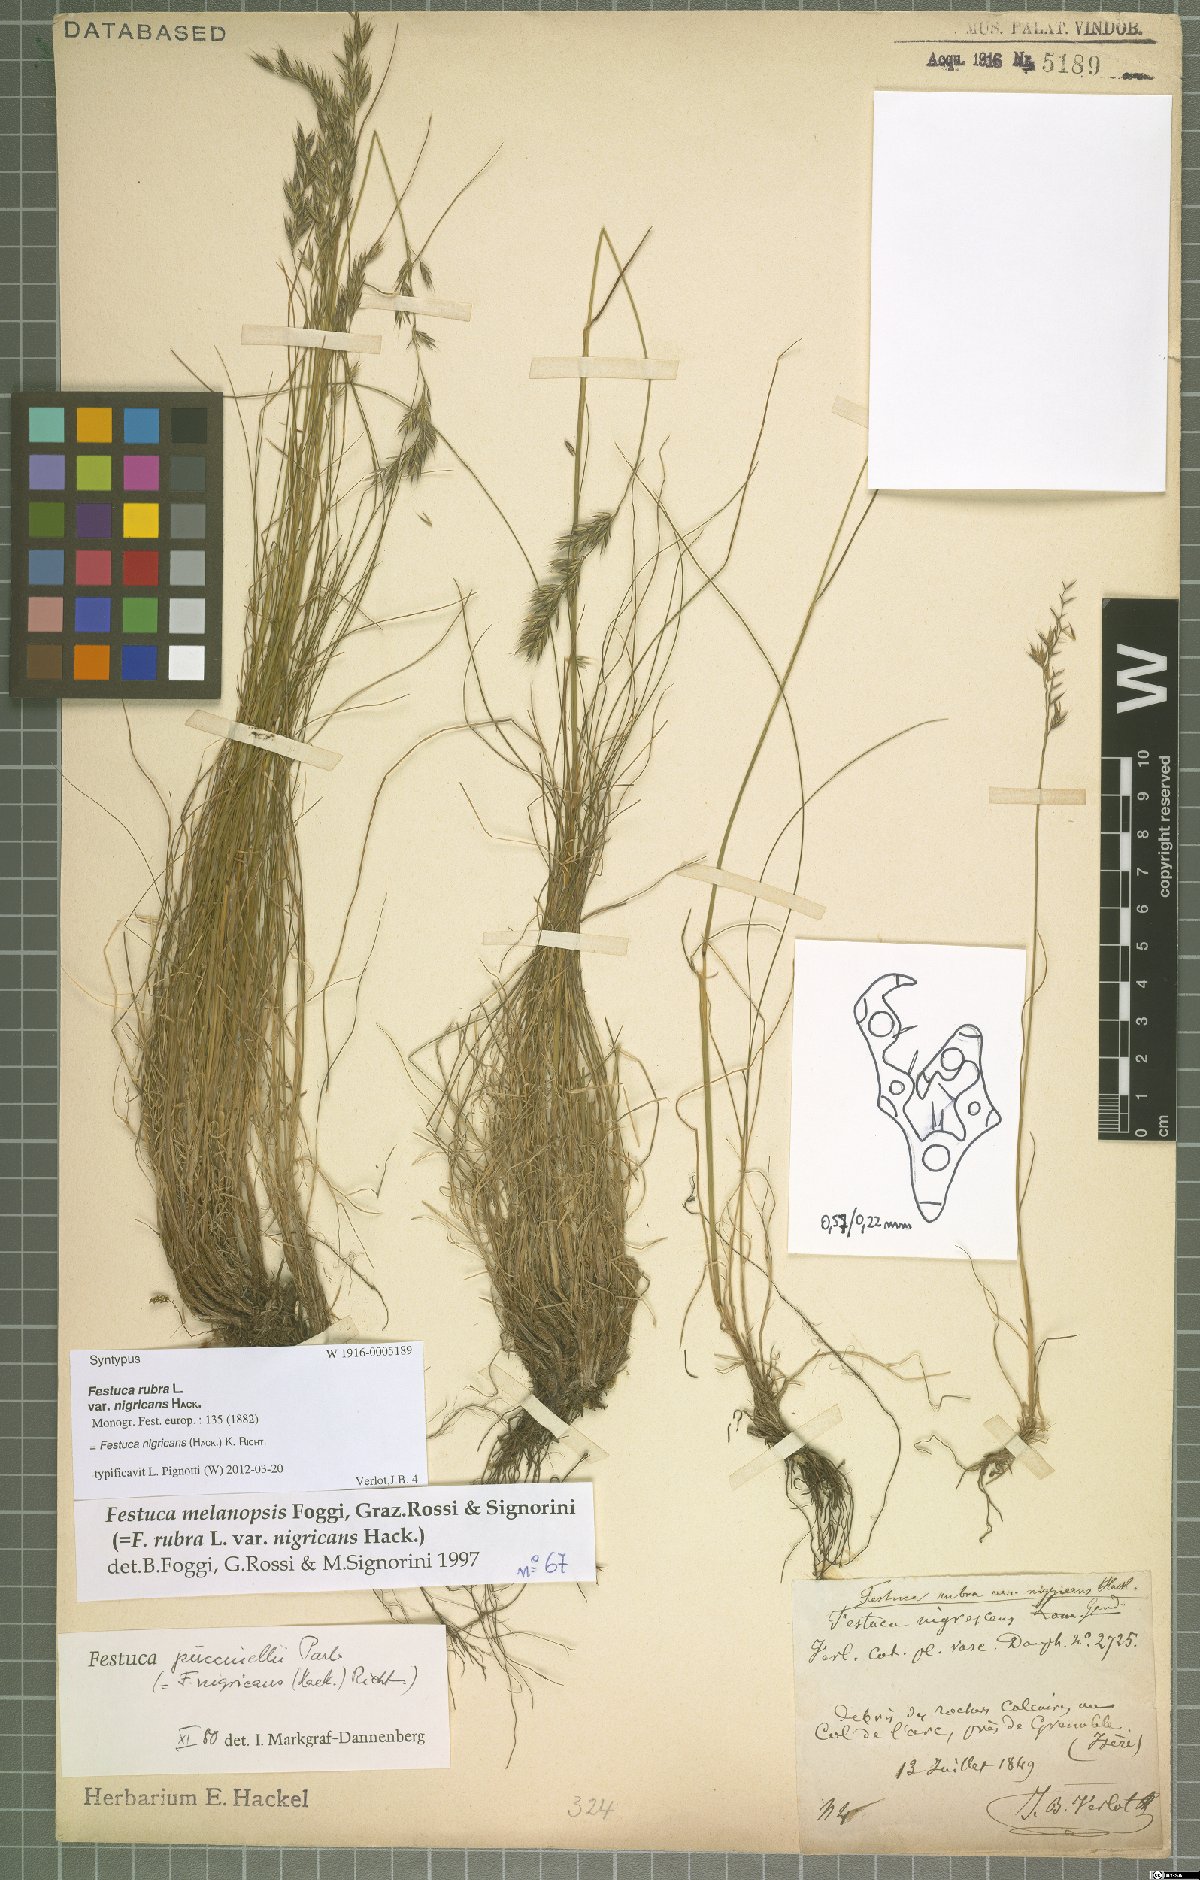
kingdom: Plantae
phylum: Tracheophyta
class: Liliopsida
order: Poales
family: Poaceae
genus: Festuca
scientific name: Festuca violacea
